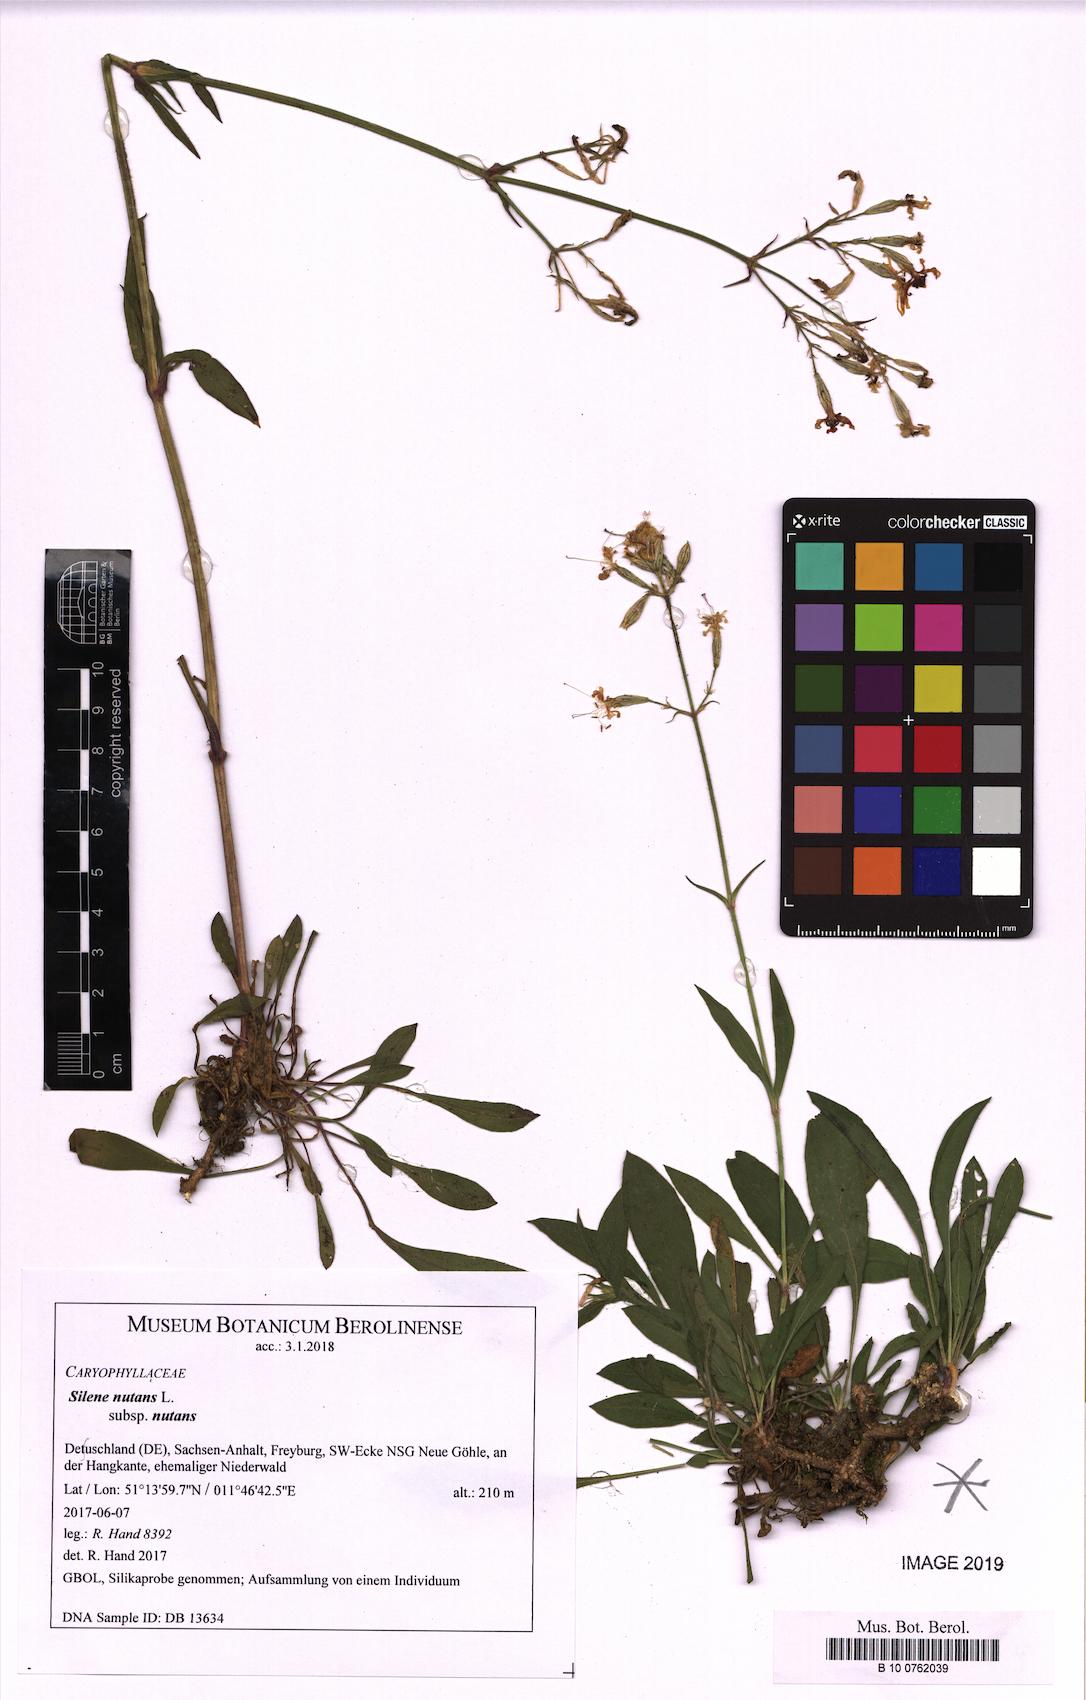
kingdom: Plantae
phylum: Tracheophyta
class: Magnoliopsida
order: Caryophyllales
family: Caryophyllaceae
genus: Silene
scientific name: Silene nutans
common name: Nottingham catchfly
